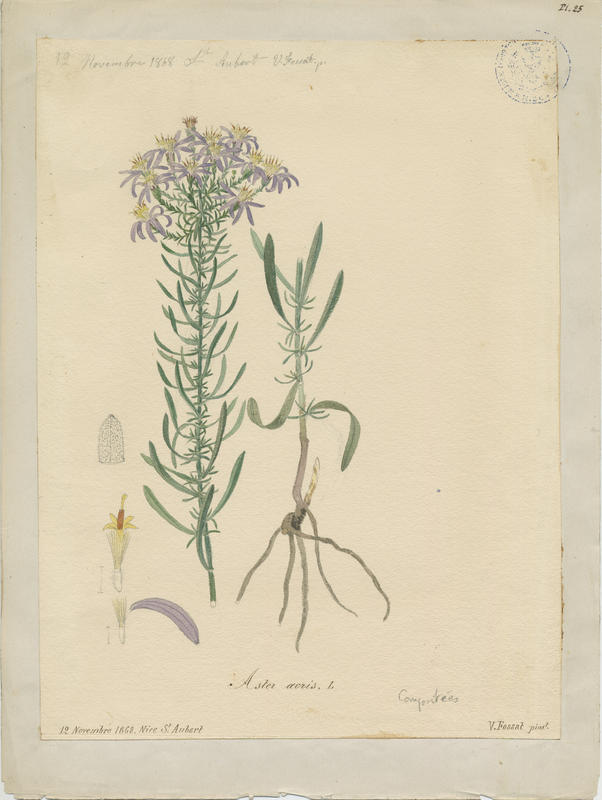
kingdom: Plantae
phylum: Tracheophyta
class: Magnoliopsida
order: Asterales
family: Asteraceae
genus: Galatella
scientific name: Galatella sedifolia
